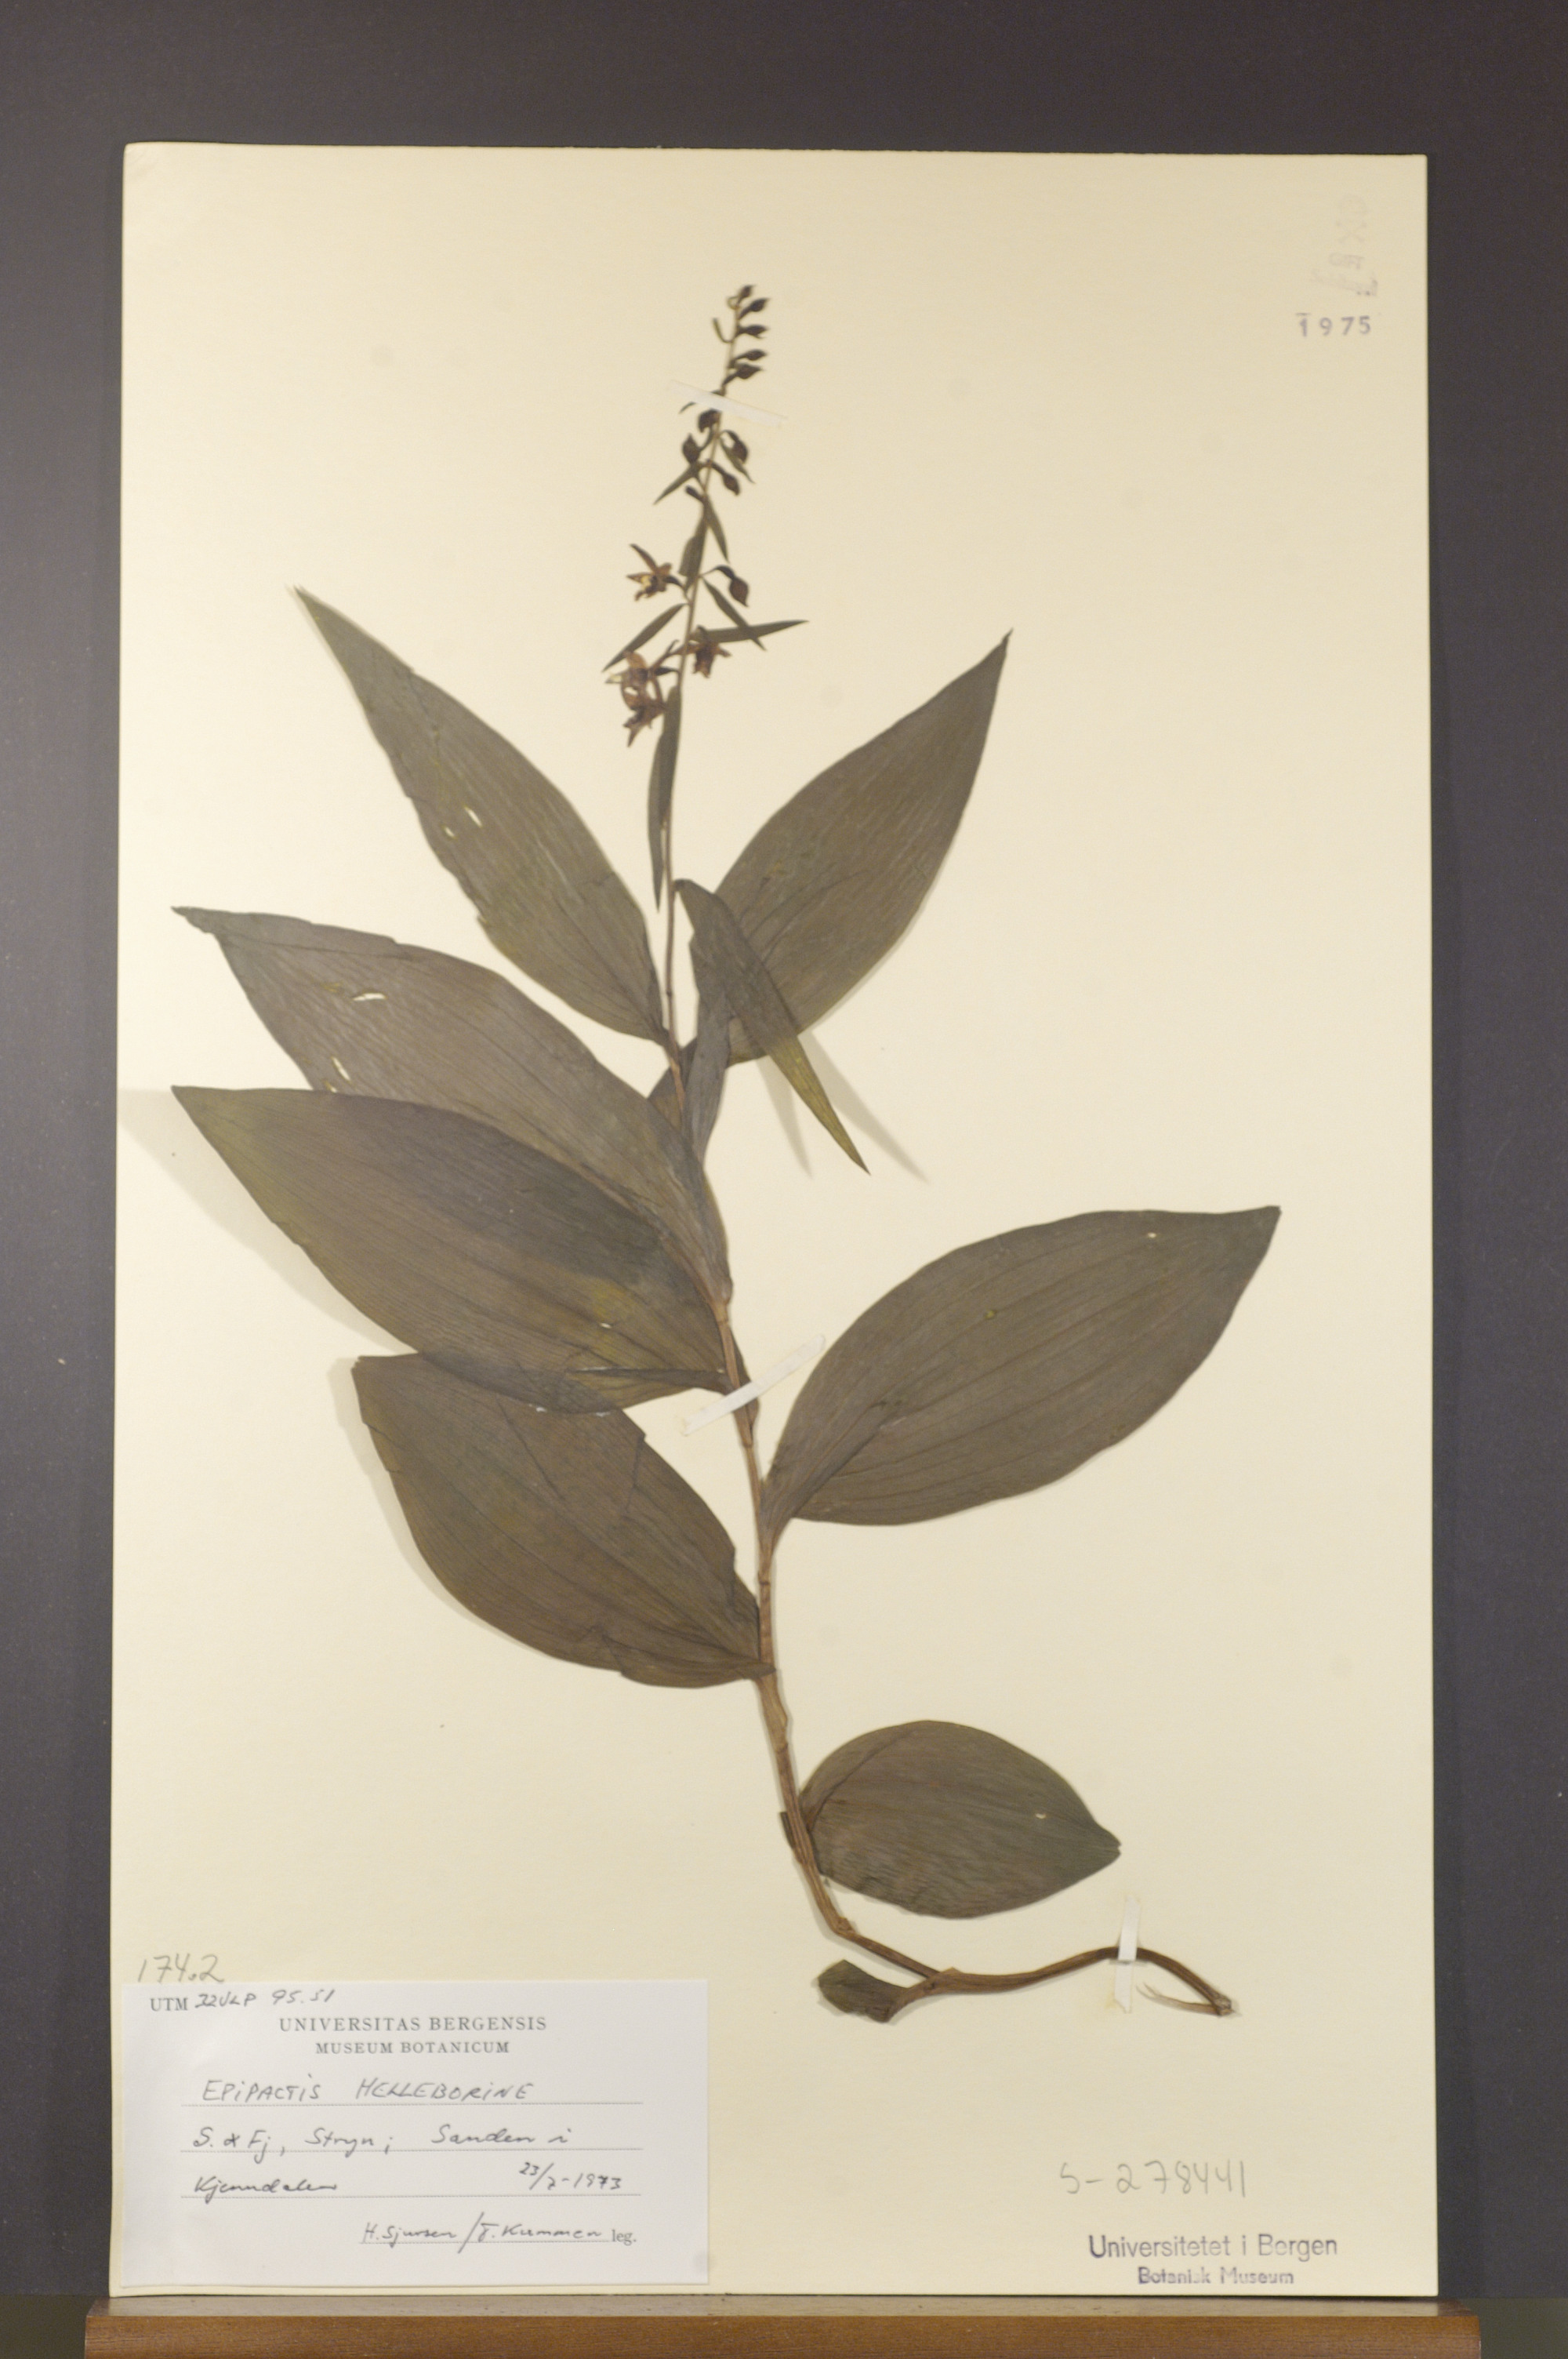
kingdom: Plantae
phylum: Tracheophyta
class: Liliopsida
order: Asparagales
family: Orchidaceae
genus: Epipactis
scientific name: Epipactis helleborine
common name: Broad-leaved helleborine
